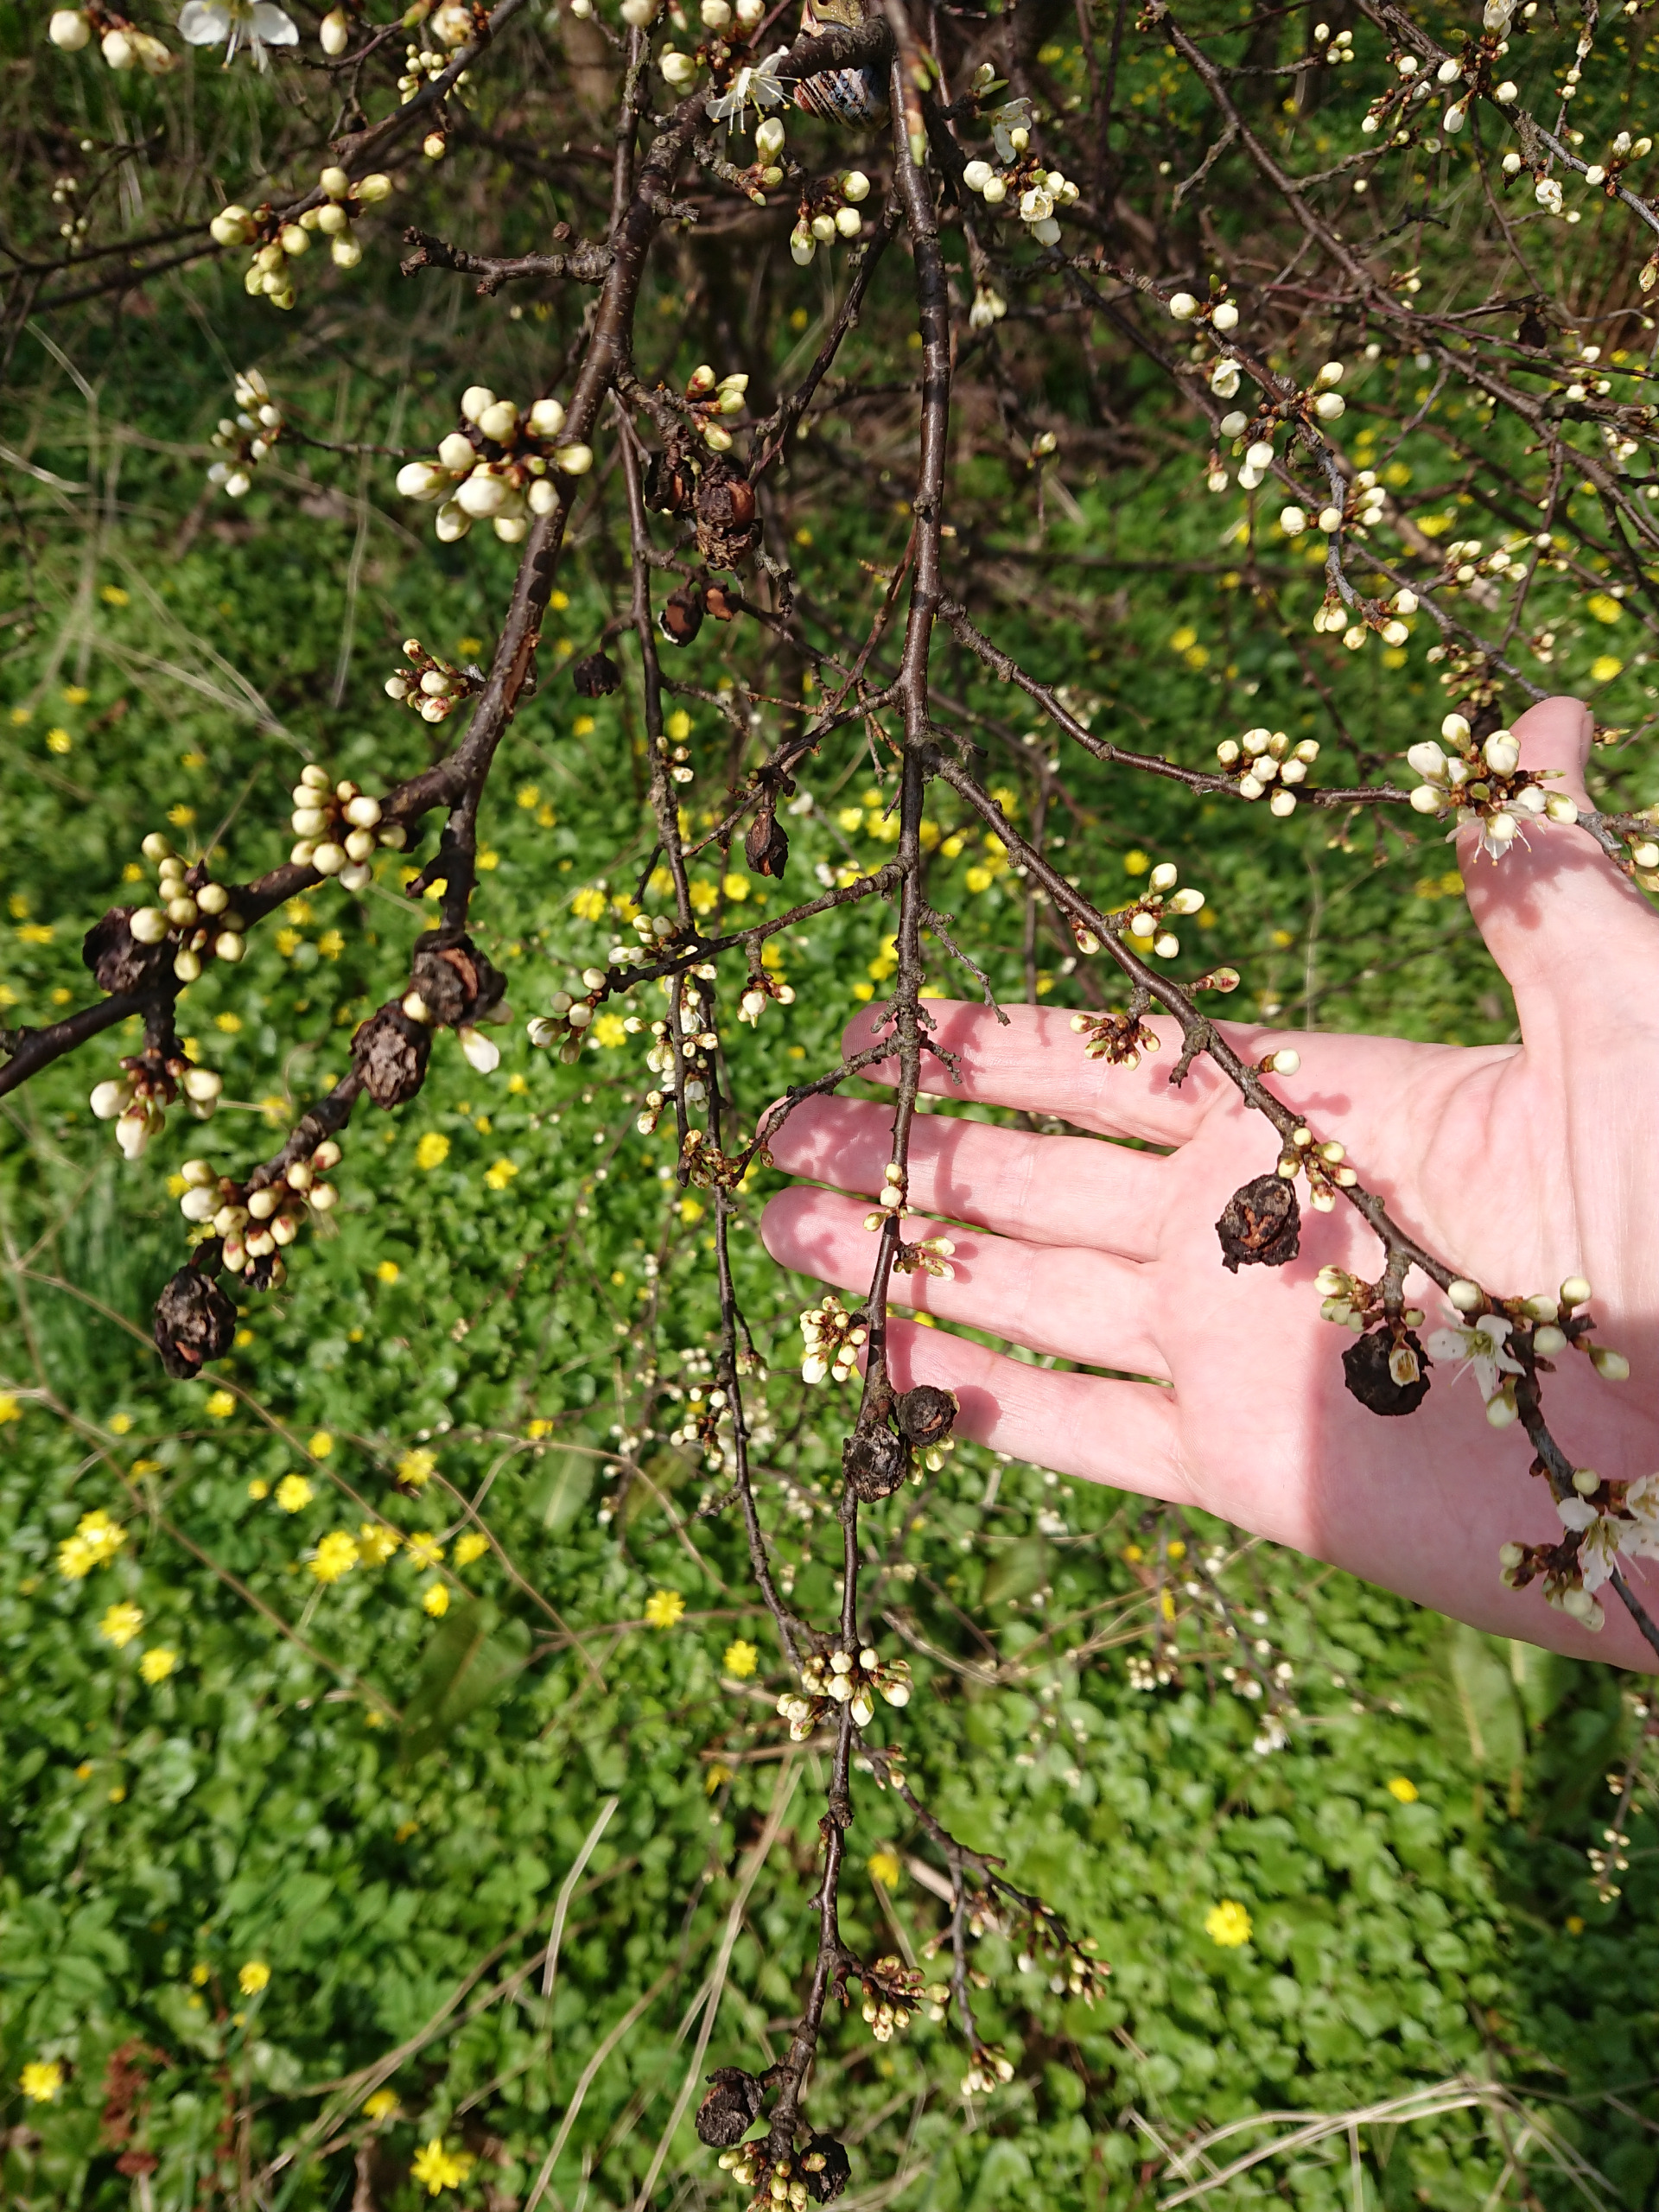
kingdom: Plantae
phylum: Tracheophyta
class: Magnoliopsida
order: Rosales
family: Rosaceae
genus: Prunus
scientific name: Prunus spinosa
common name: Slåen
